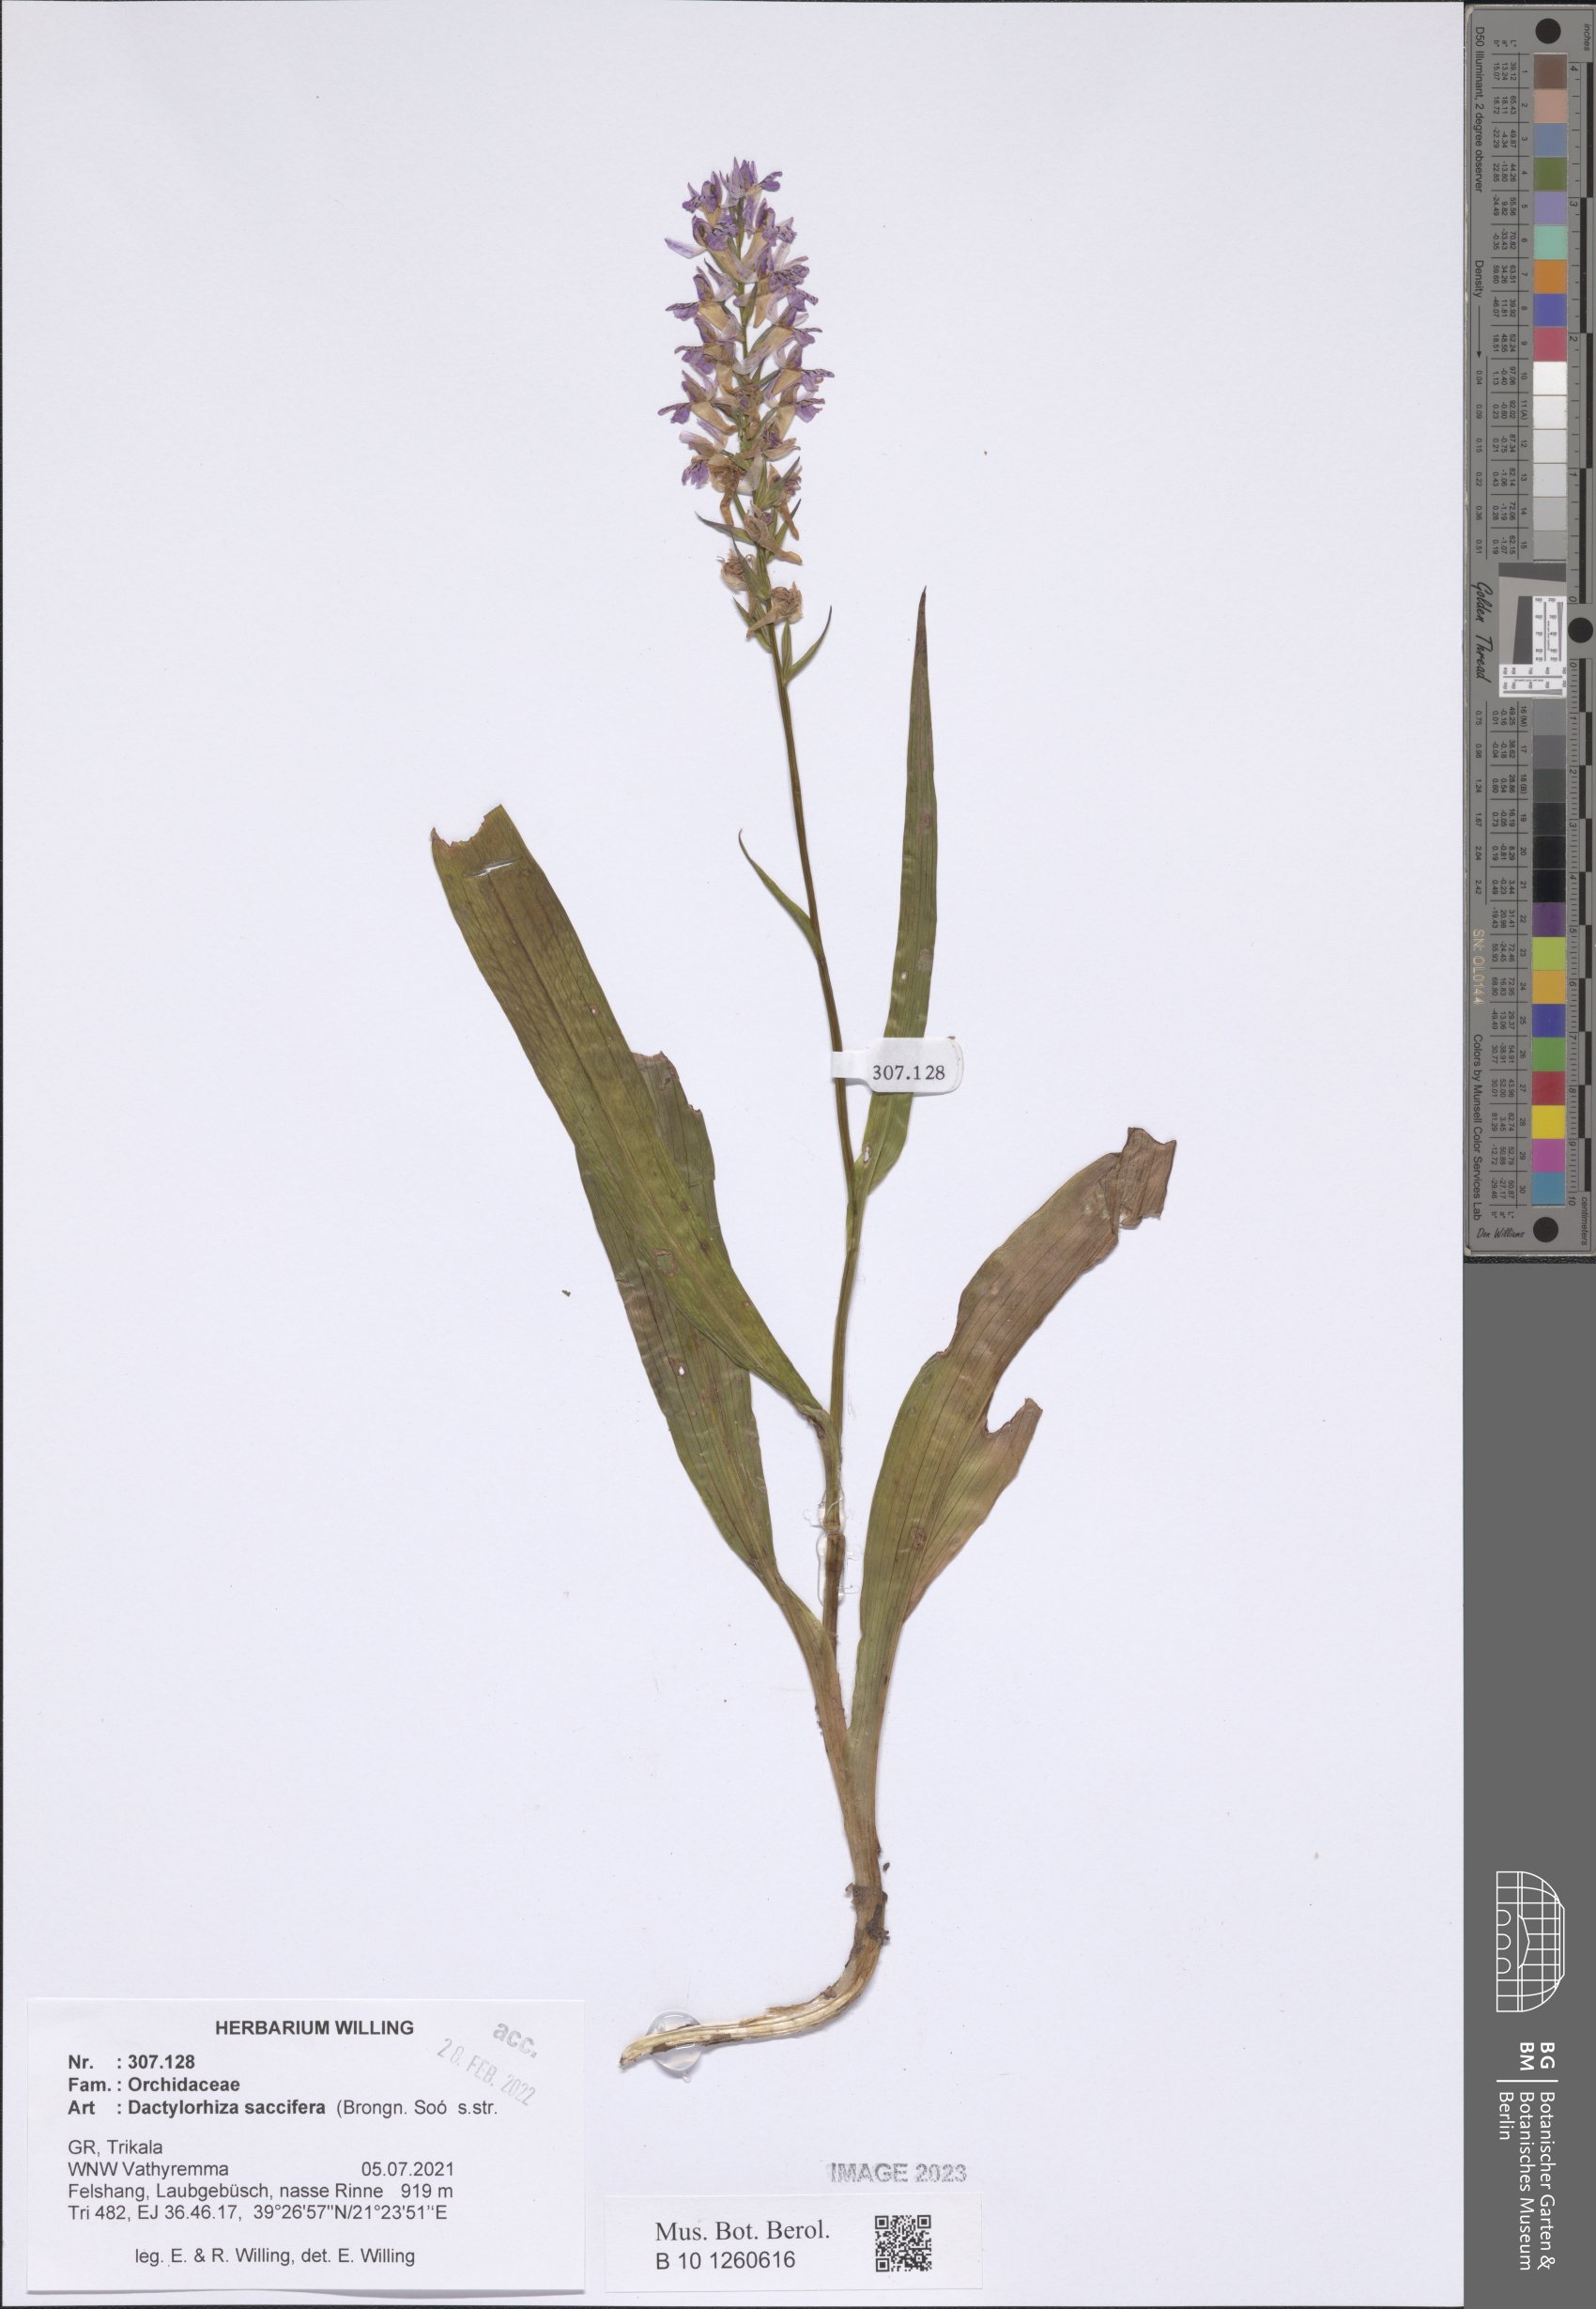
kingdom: Plantae
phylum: Tracheophyta
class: Liliopsida
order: Asparagales
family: Orchidaceae
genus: Dactylorhiza
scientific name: Dactylorhiza maculata
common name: Heath spotted-orchid
